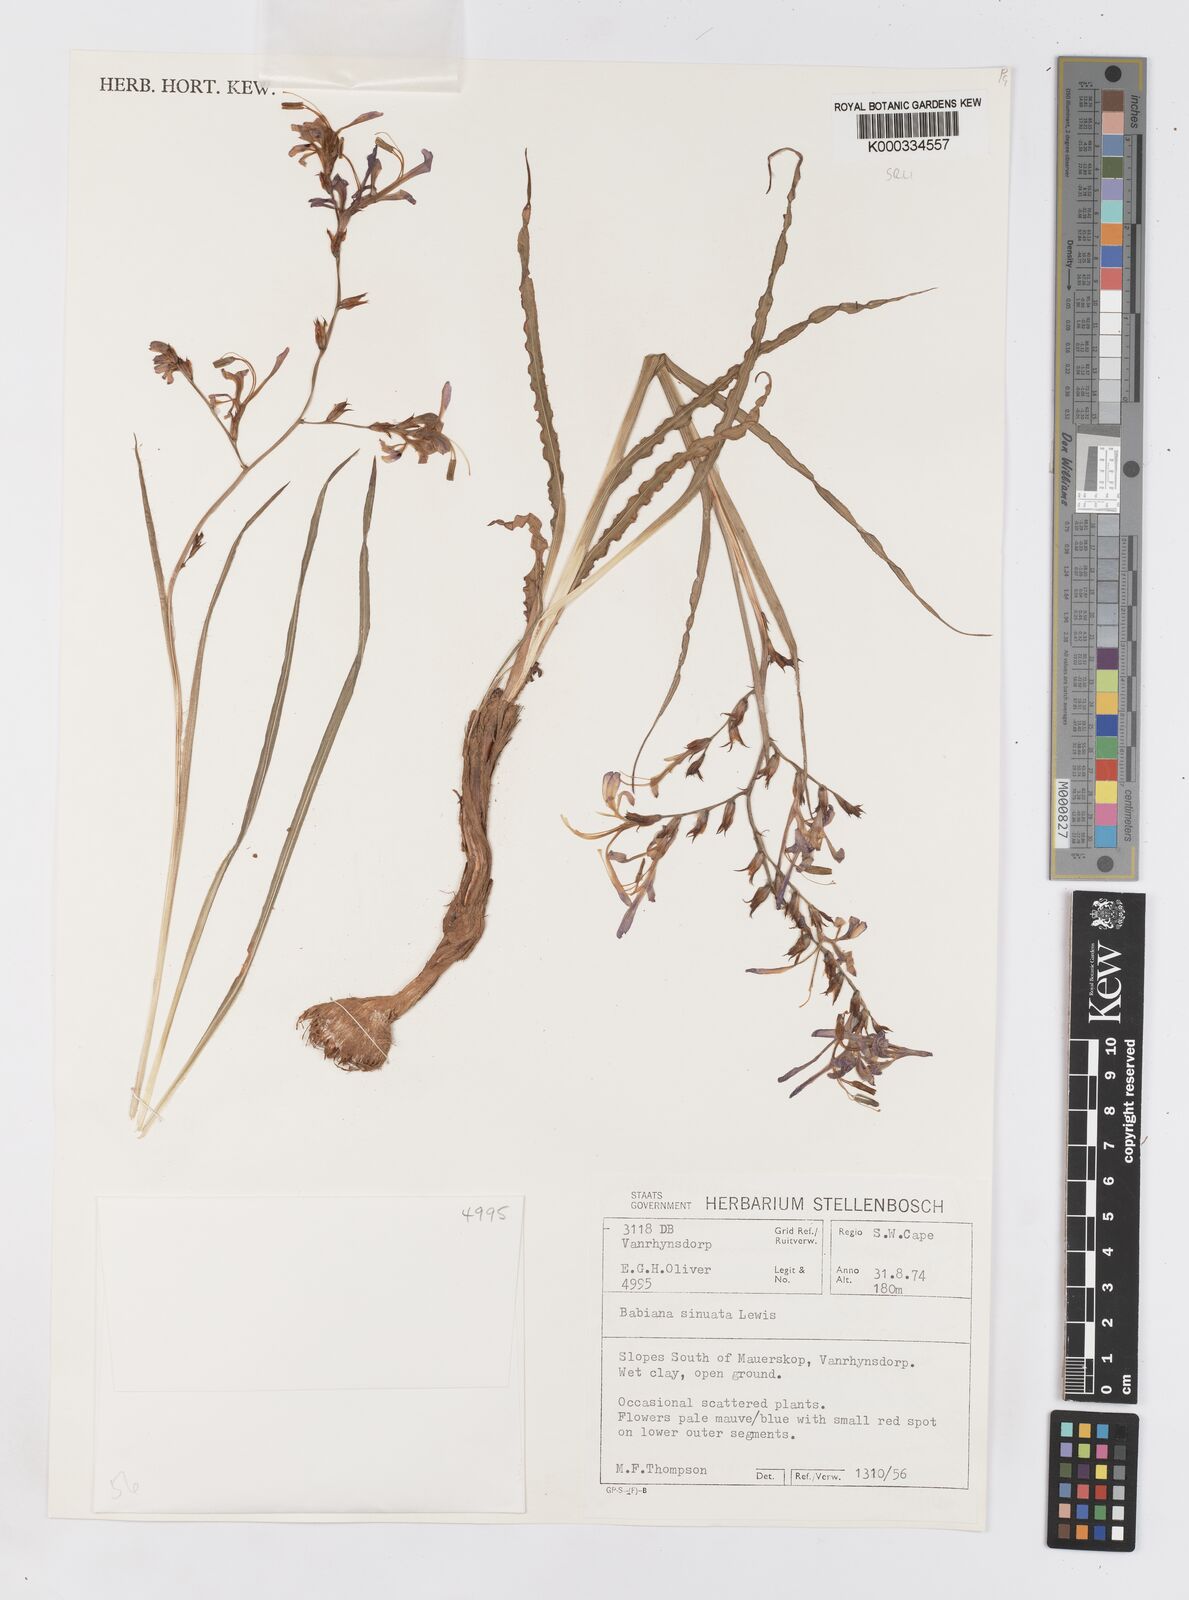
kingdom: Plantae
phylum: Tracheophyta
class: Liliopsida
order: Asparagales
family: Iridaceae
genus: Babiana
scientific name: Babiana
